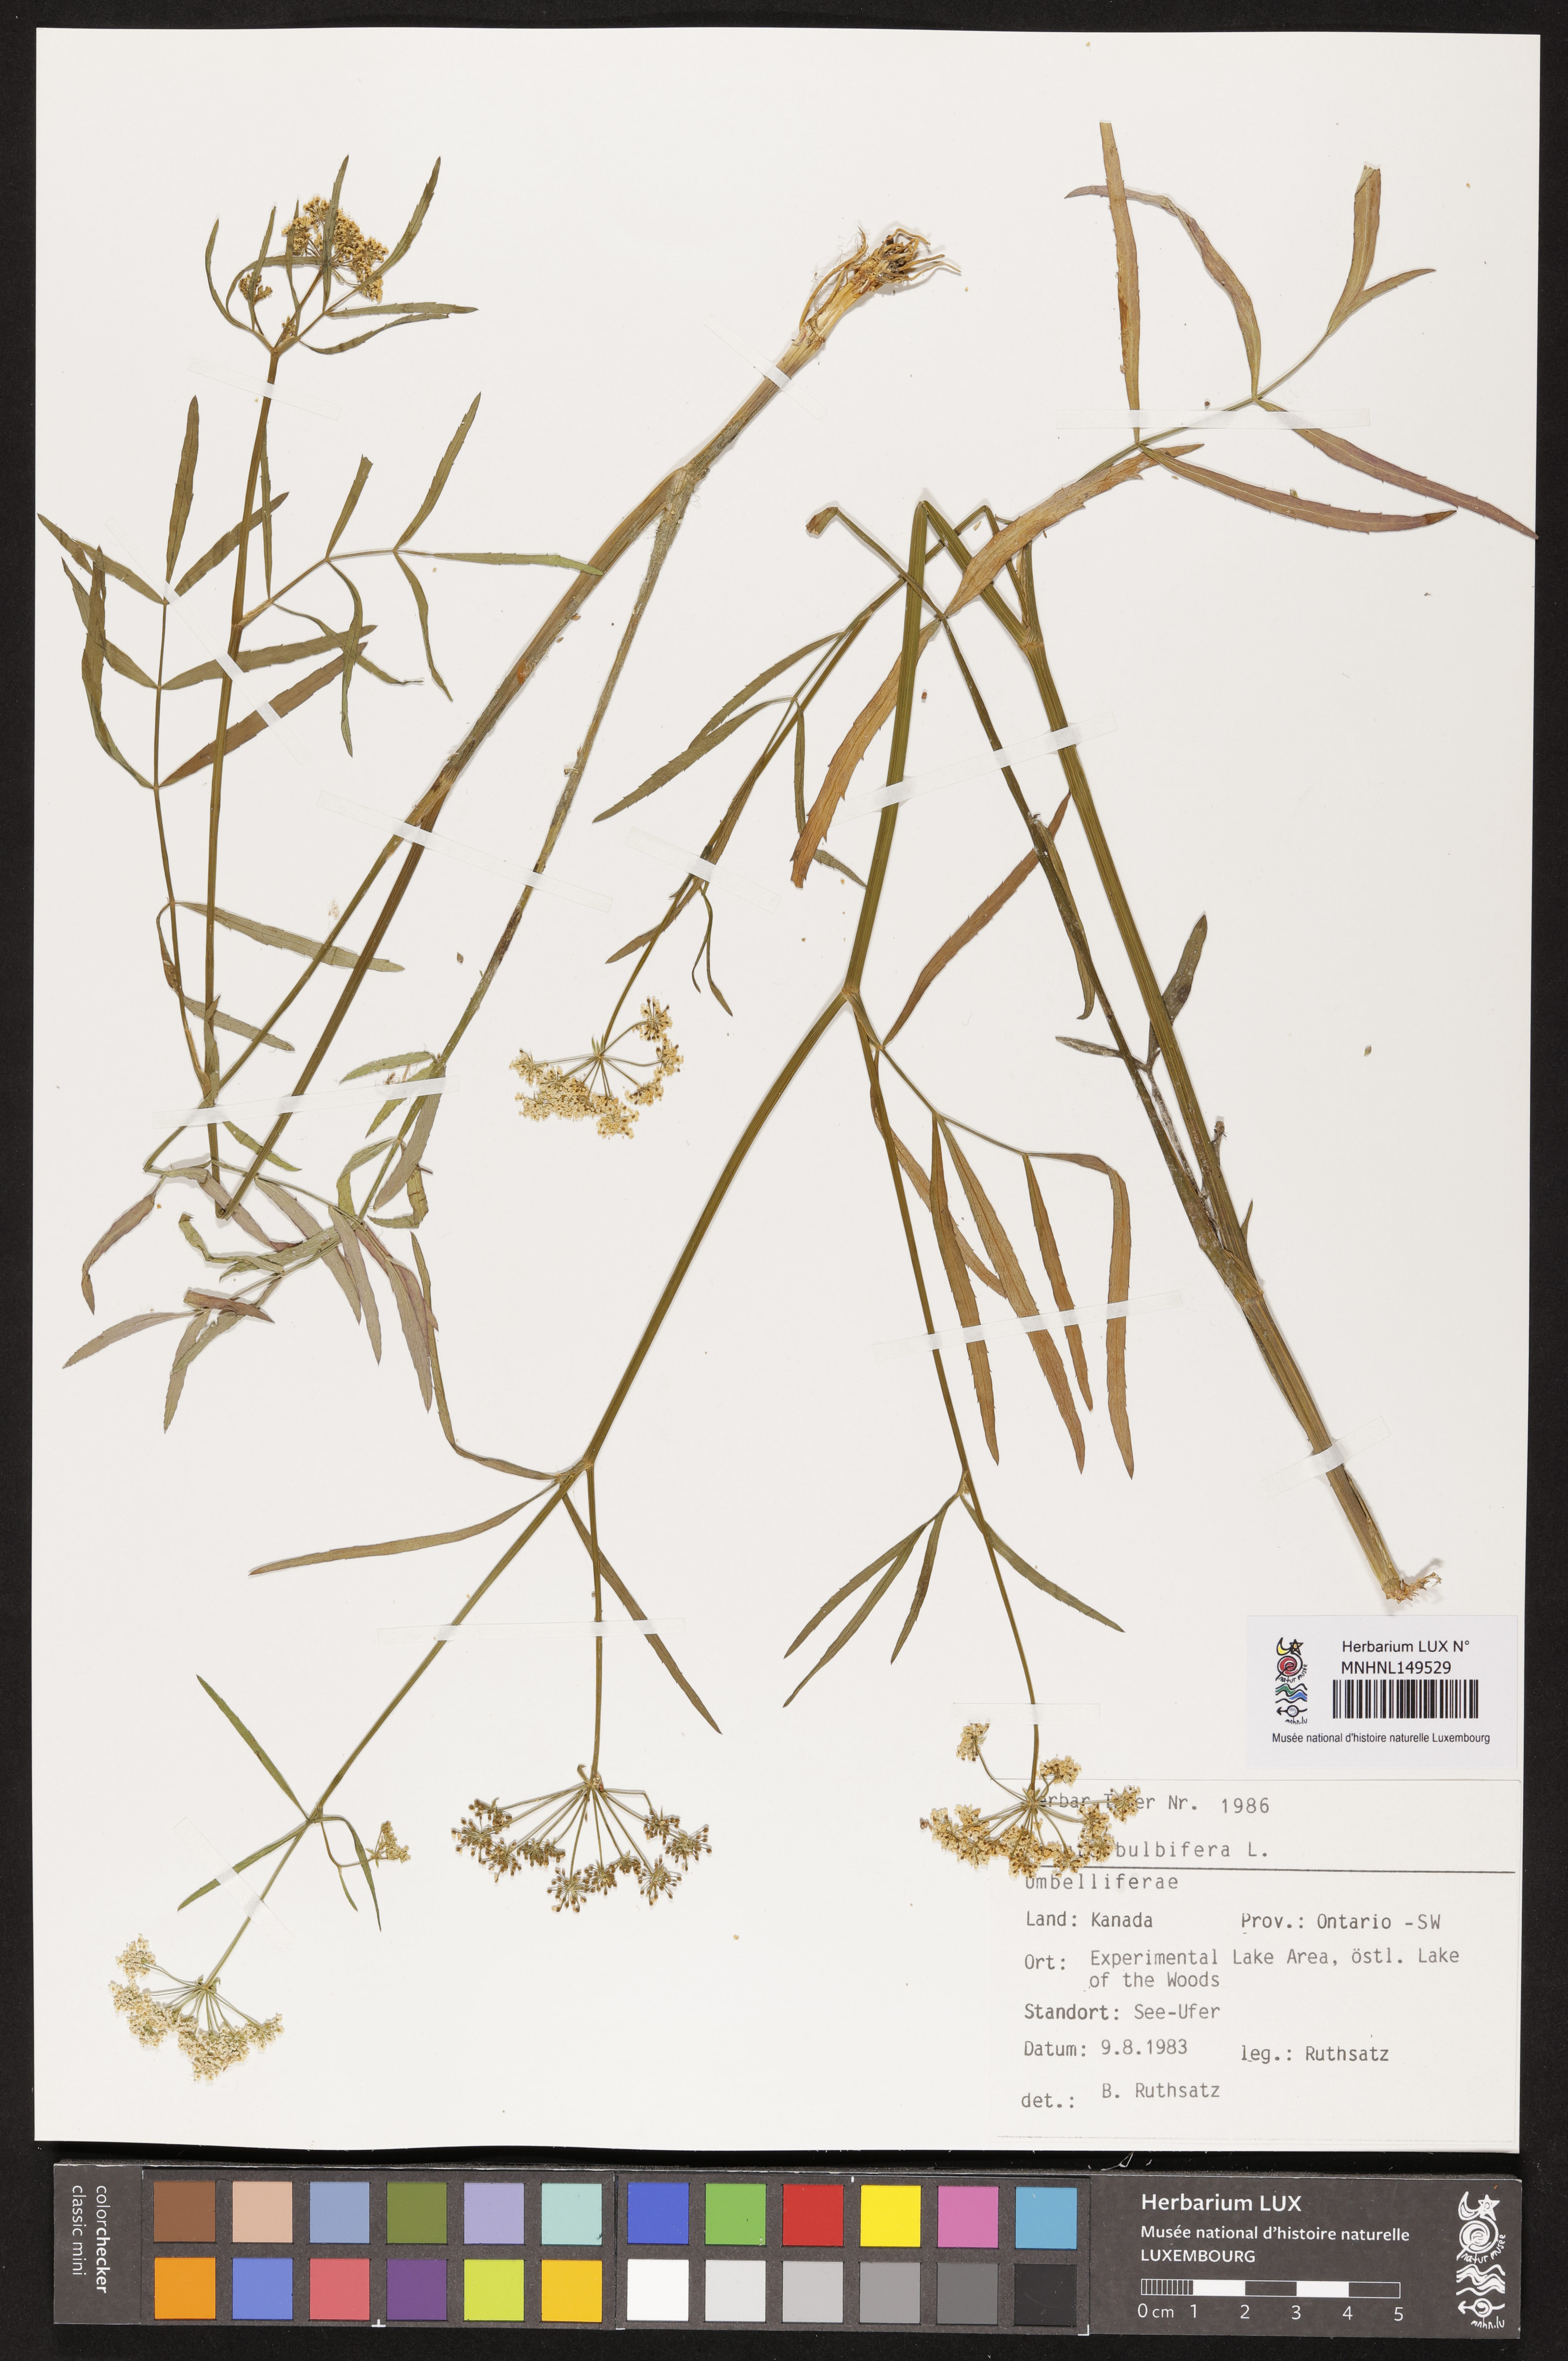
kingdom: Plantae
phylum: Tracheophyta
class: Magnoliopsida
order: Apiales
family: Apiaceae
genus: Cicuta
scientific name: Cicuta bulbifera
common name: Bulb-bearing water-hemlock
